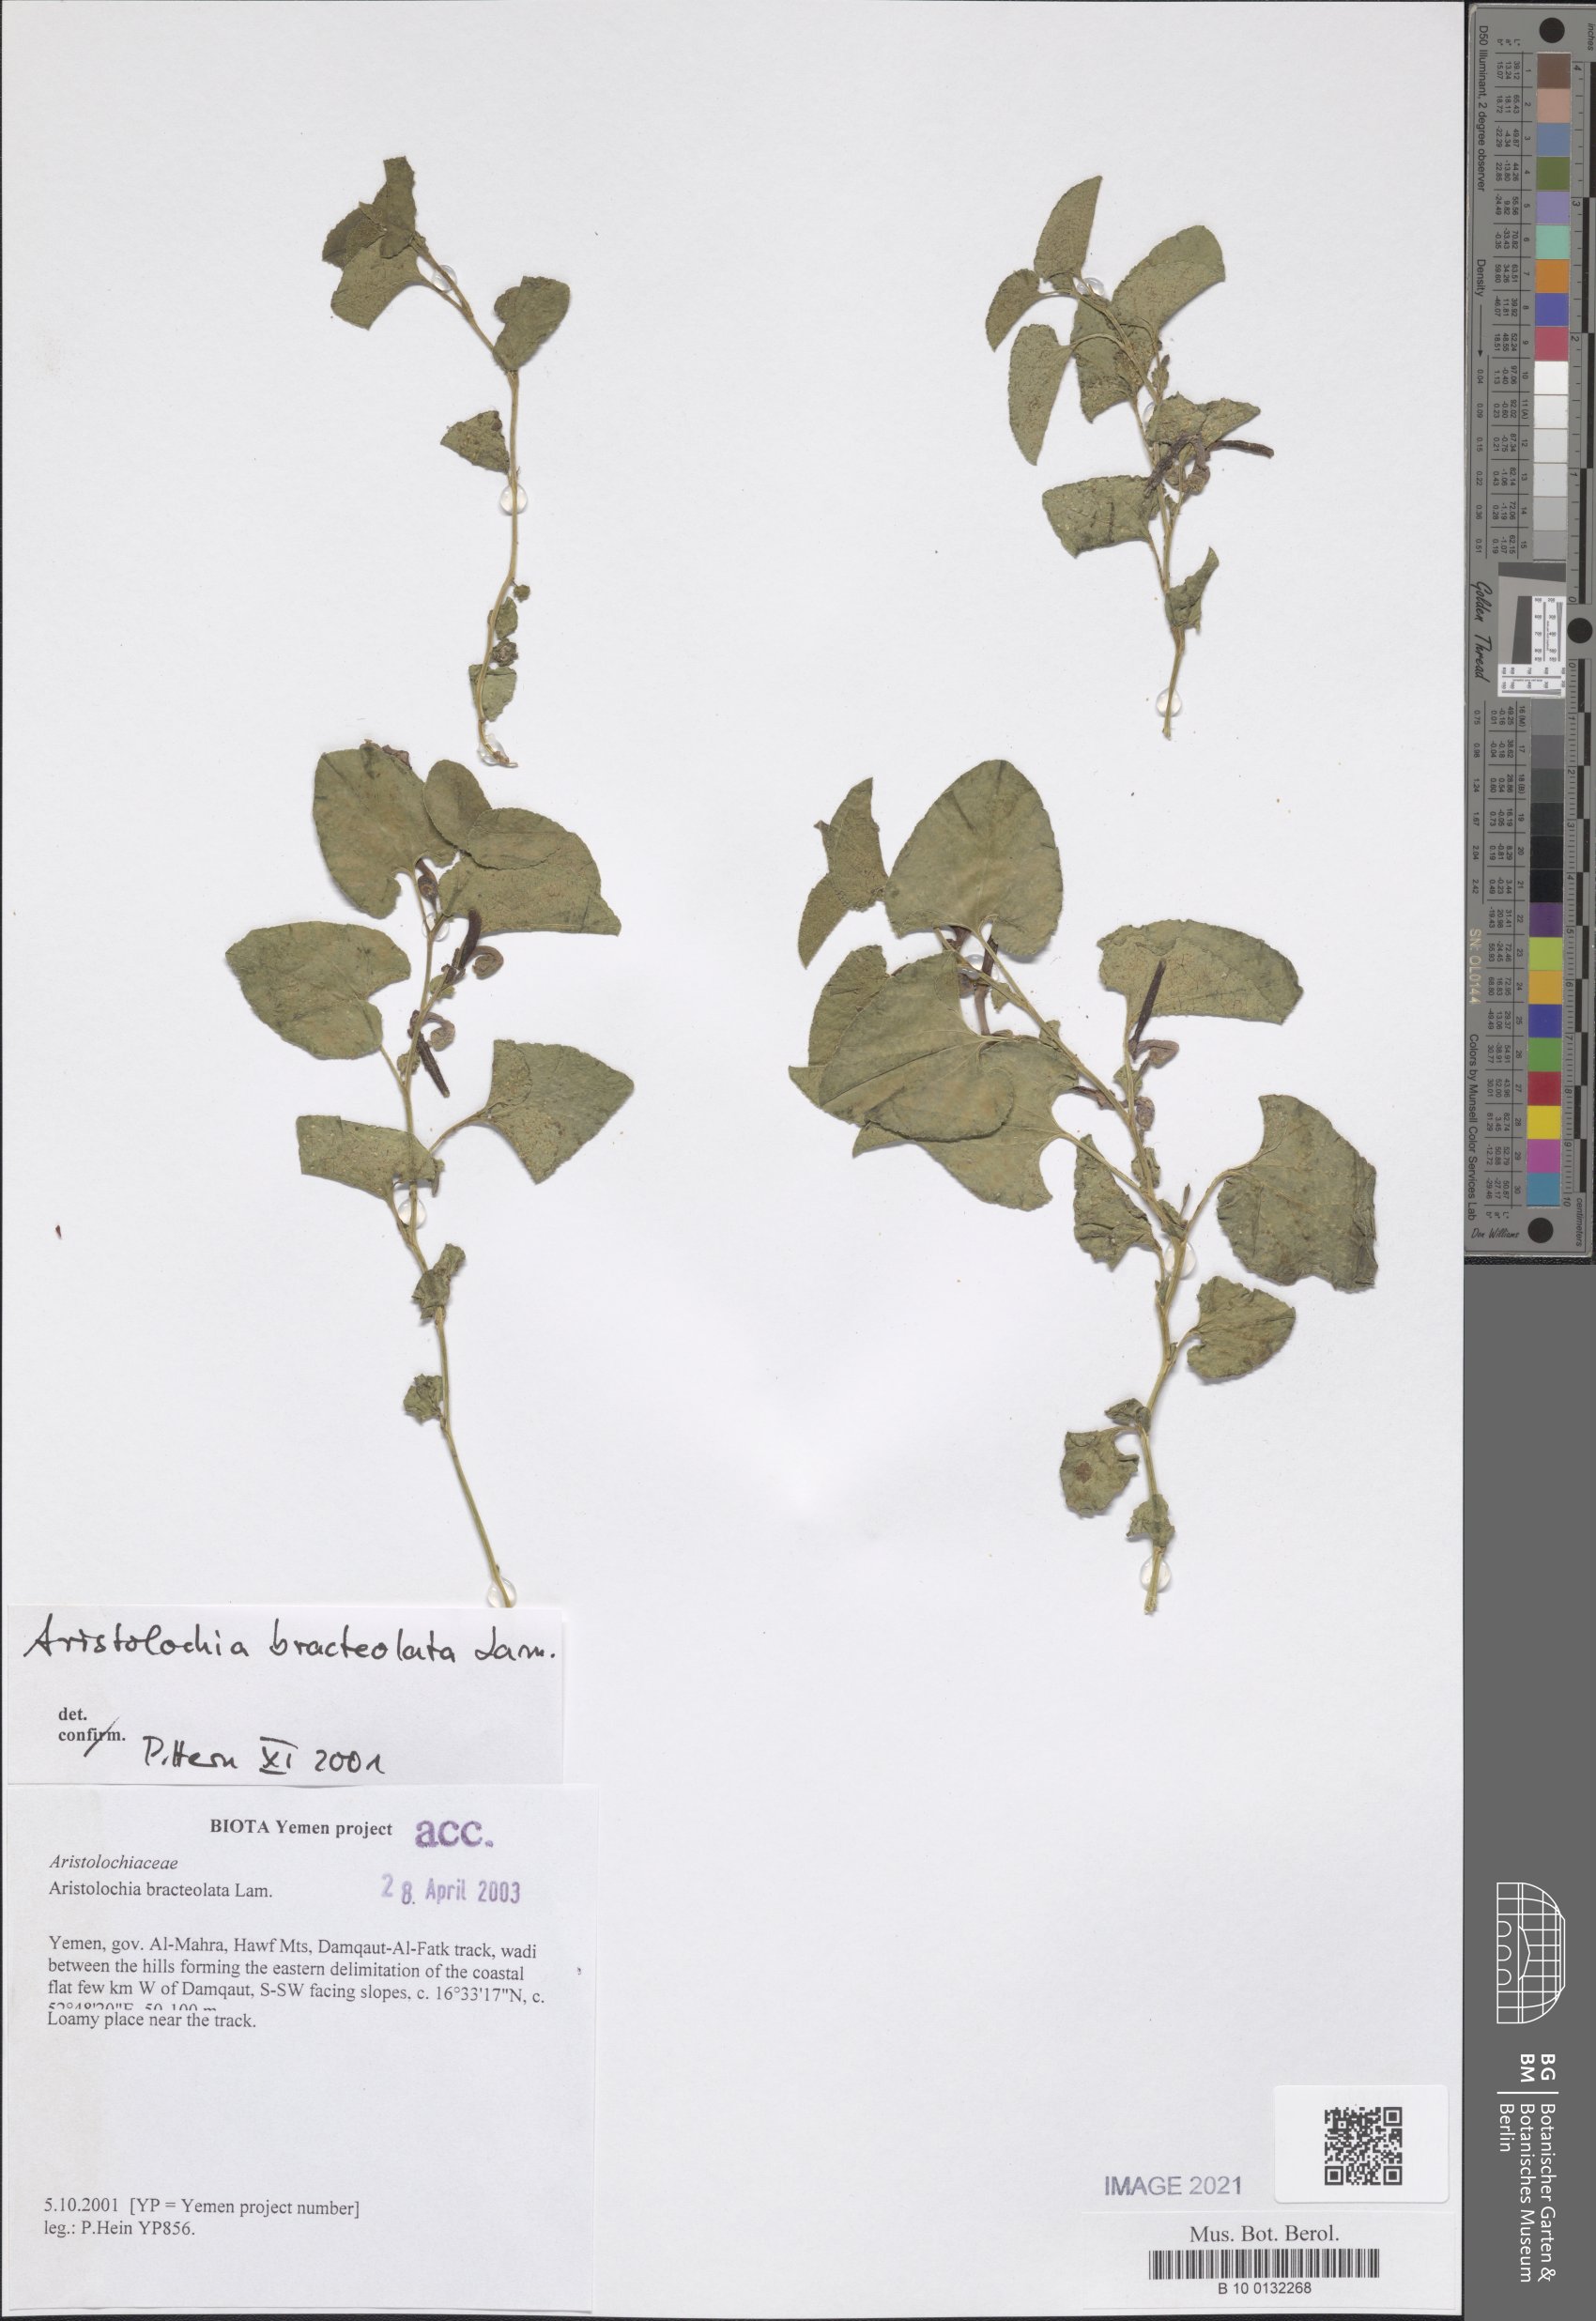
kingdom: Plantae
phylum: Tracheophyta
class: Magnoliopsida
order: Piperales
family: Aristolochiaceae
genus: Aristolochia
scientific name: Aristolochia bracteolata
